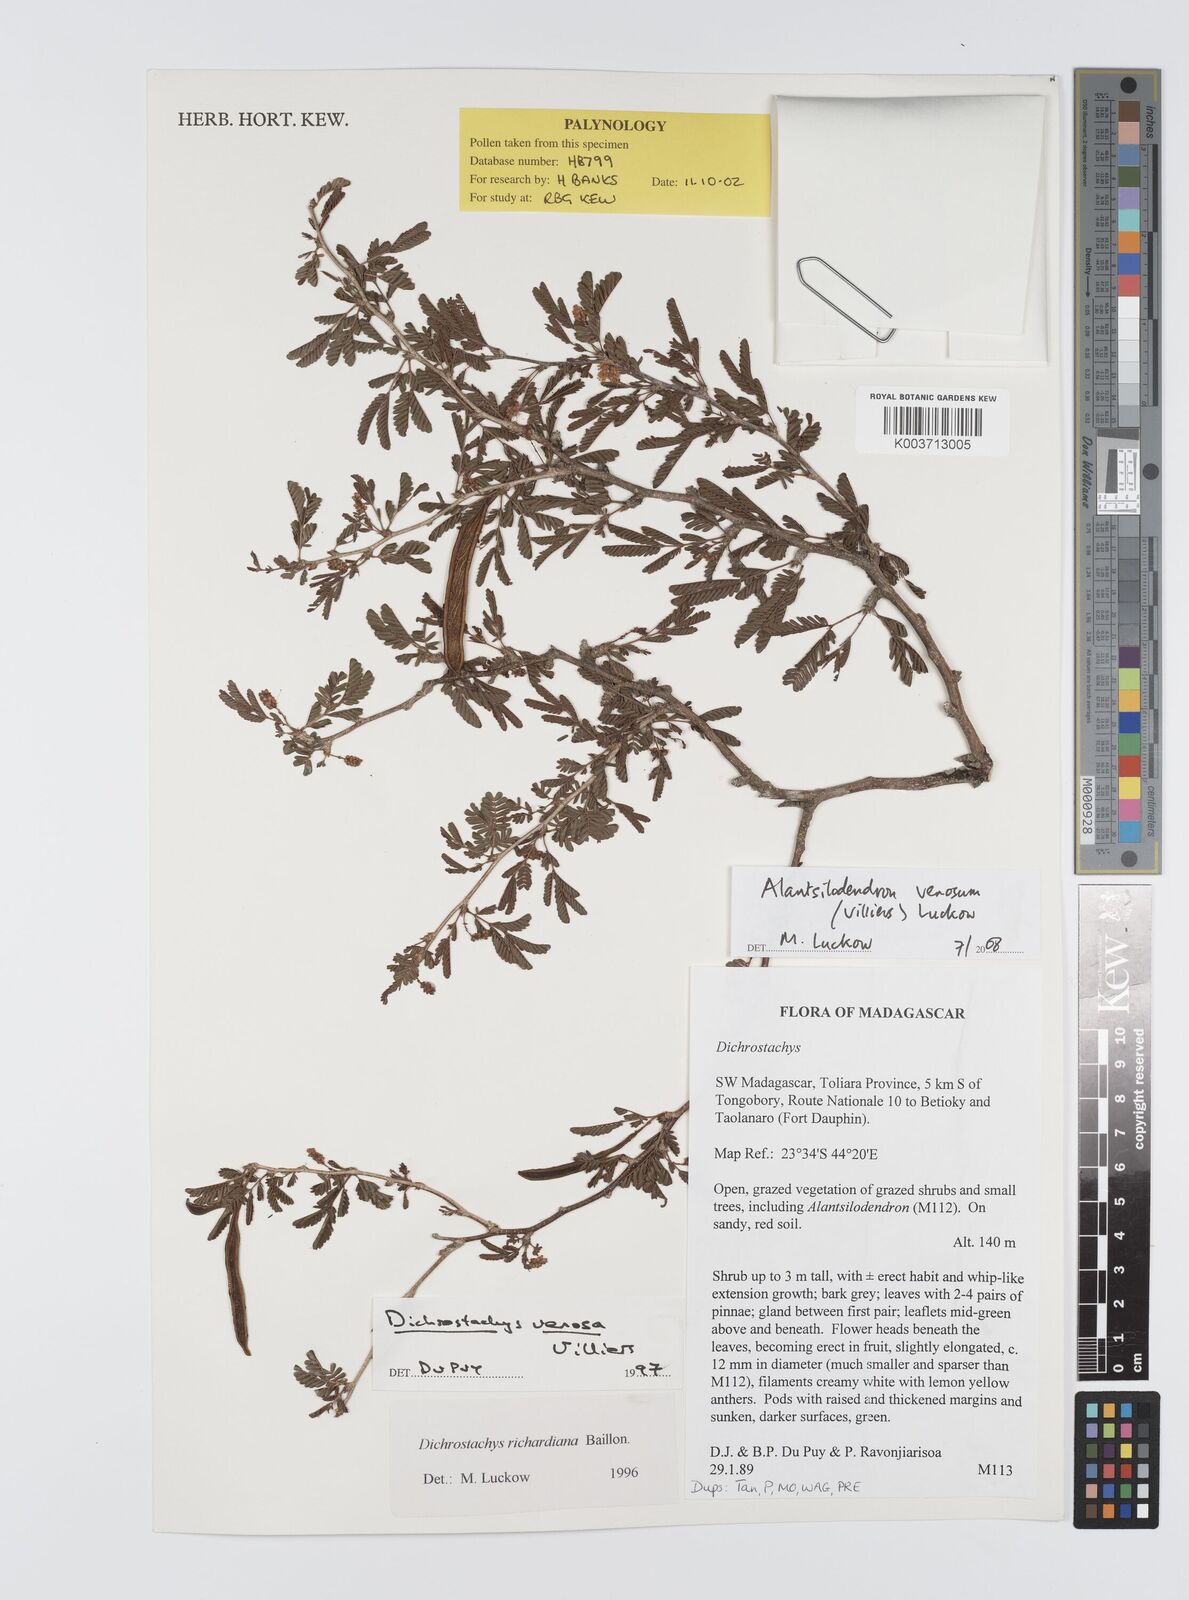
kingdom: Plantae
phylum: Tracheophyta
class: Magnoliopsida
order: Fabales
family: Fabaceae
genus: Alantsilodendron
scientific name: Alantsilodendron
